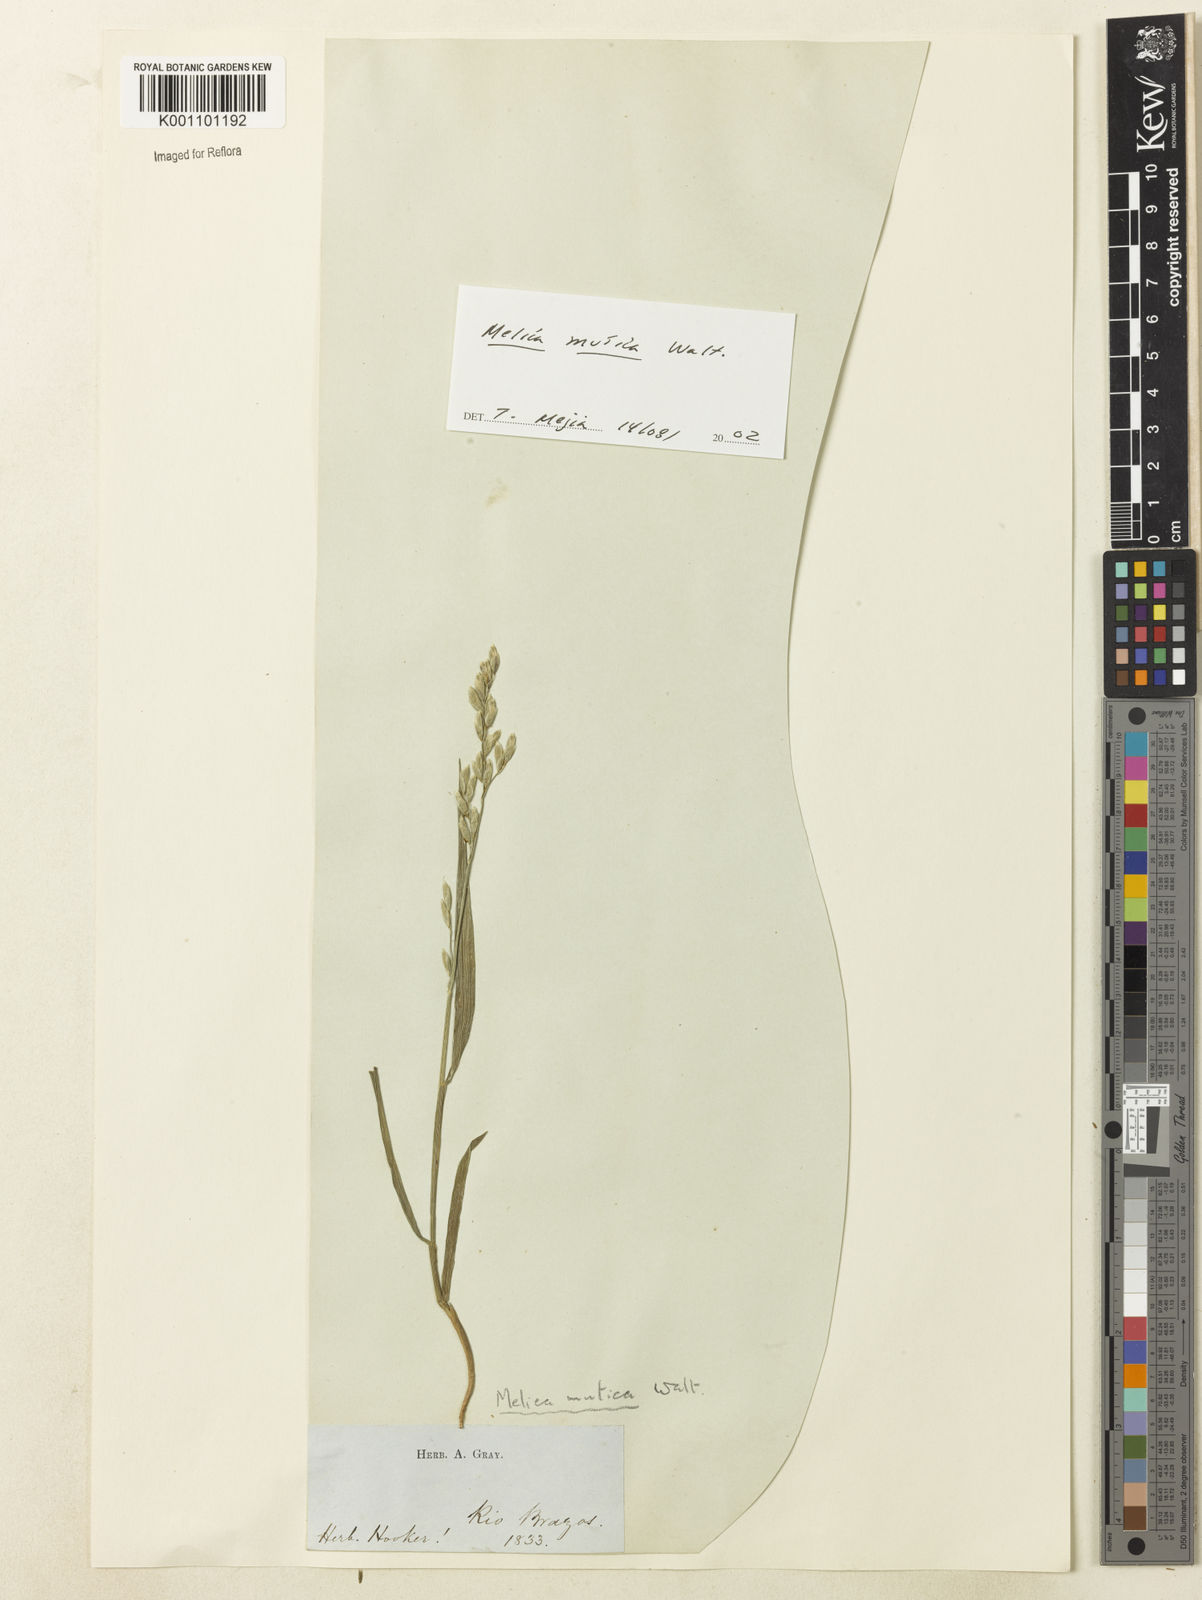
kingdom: Plantae
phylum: Tracheophyta
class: Liliopsida
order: Poales
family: Poaceae
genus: Melica
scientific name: Melica mutica
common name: Two-flower melic
